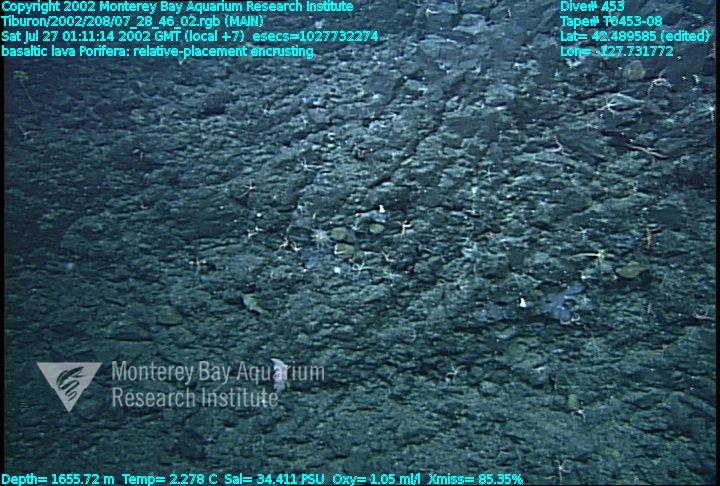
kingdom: Animalia
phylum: Porifera
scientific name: Porifera
